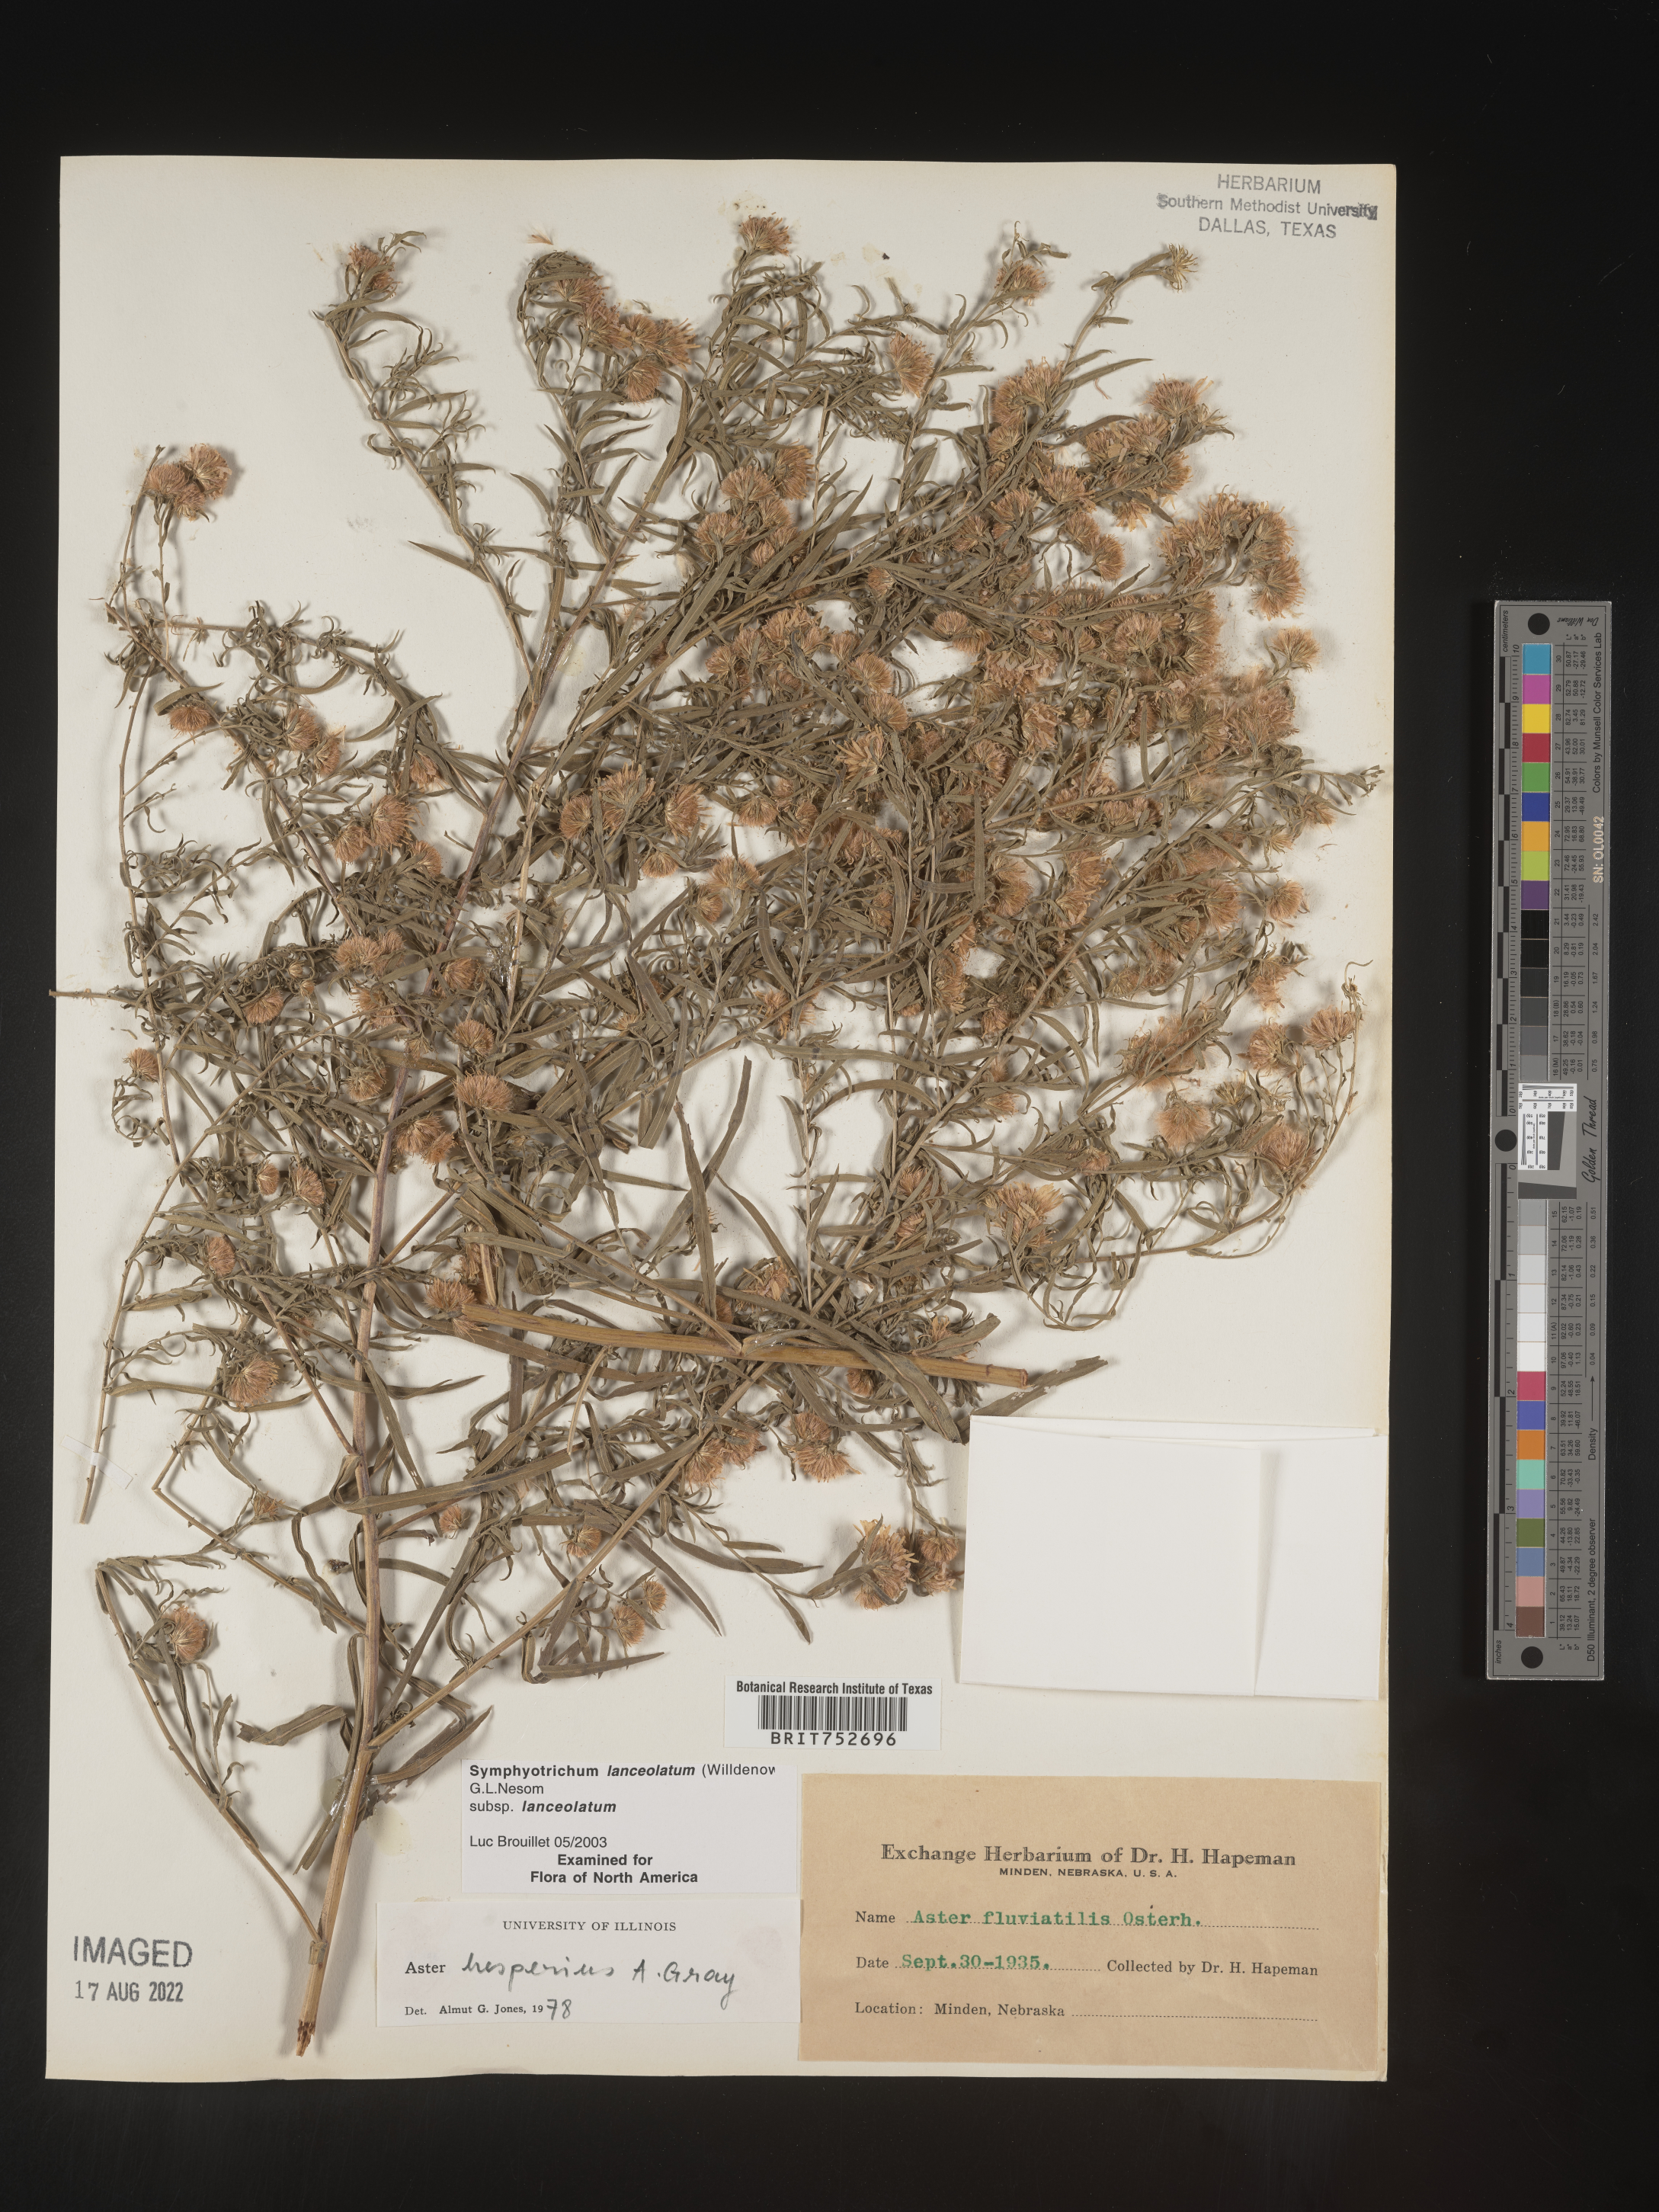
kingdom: Plantae
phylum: Tracheophyta
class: Magnoliopsida
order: Asterales
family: Asteraceae
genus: Symphyotrichum
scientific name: Symphyotrichum lanceolatum
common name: Panicled aster
